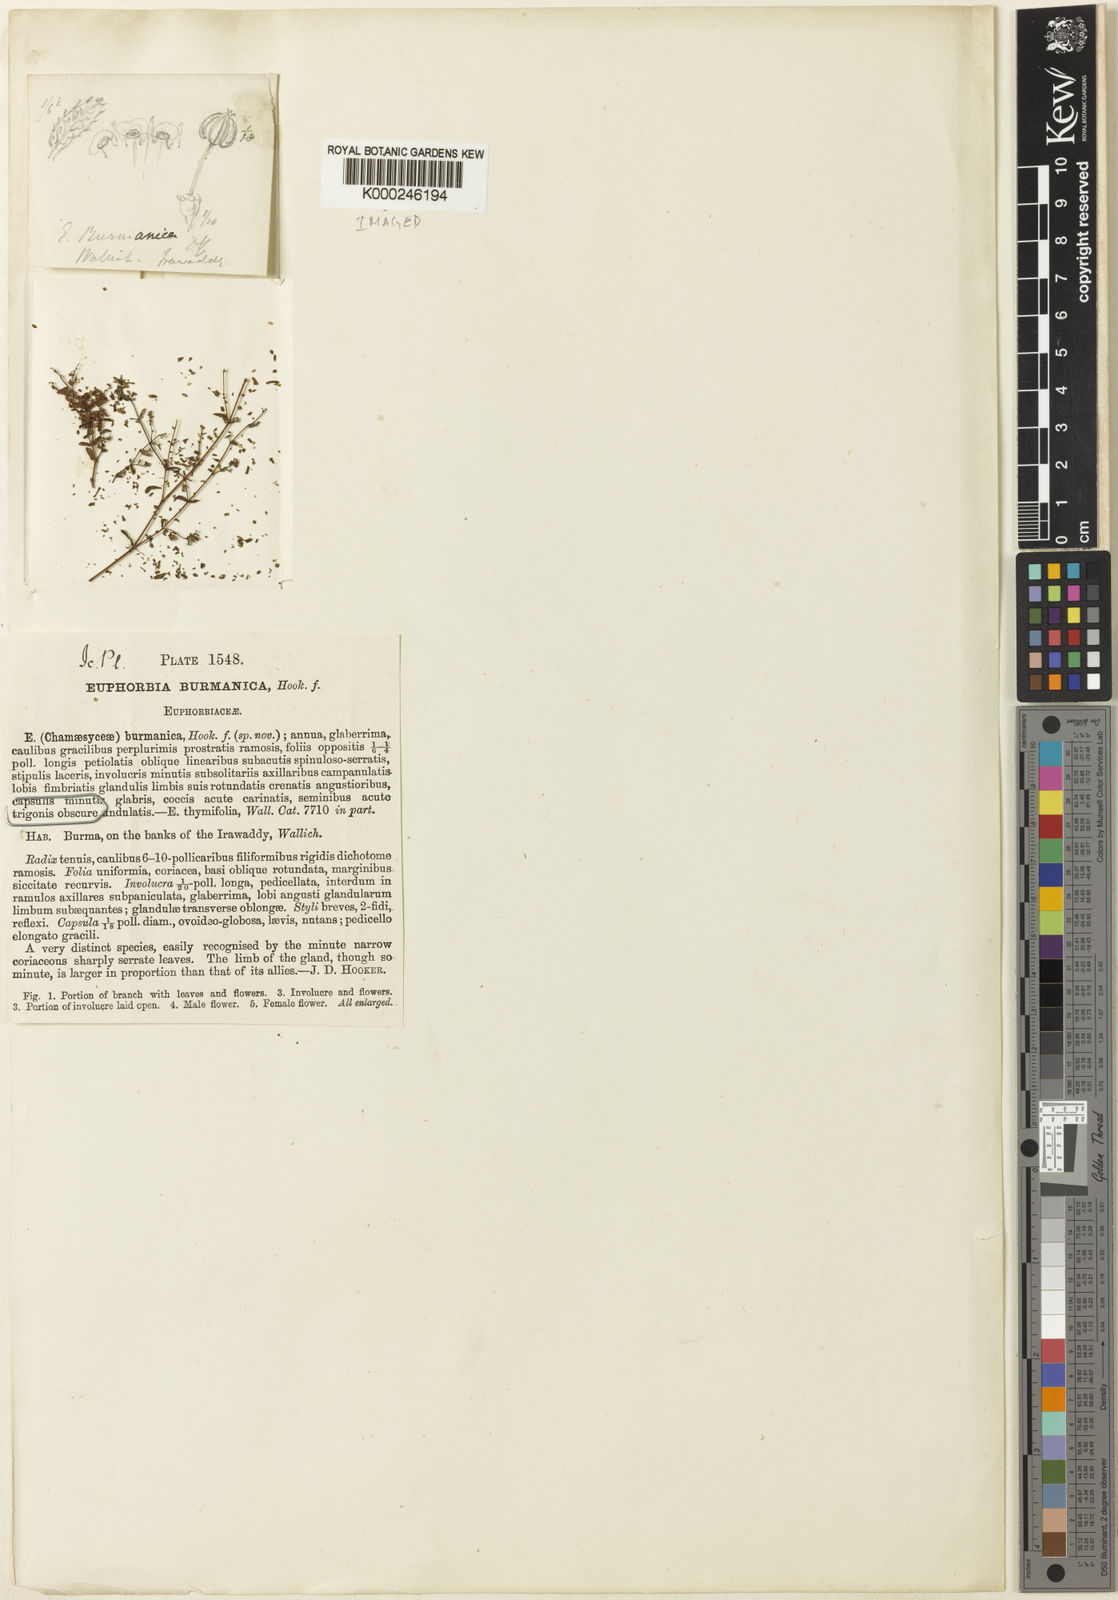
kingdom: Plantae
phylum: Tracheophyta
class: Magnoliopsida
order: Malpighiales
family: Euphorbiaceae
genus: Euphorbia
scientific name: Euphorbia burmanica
